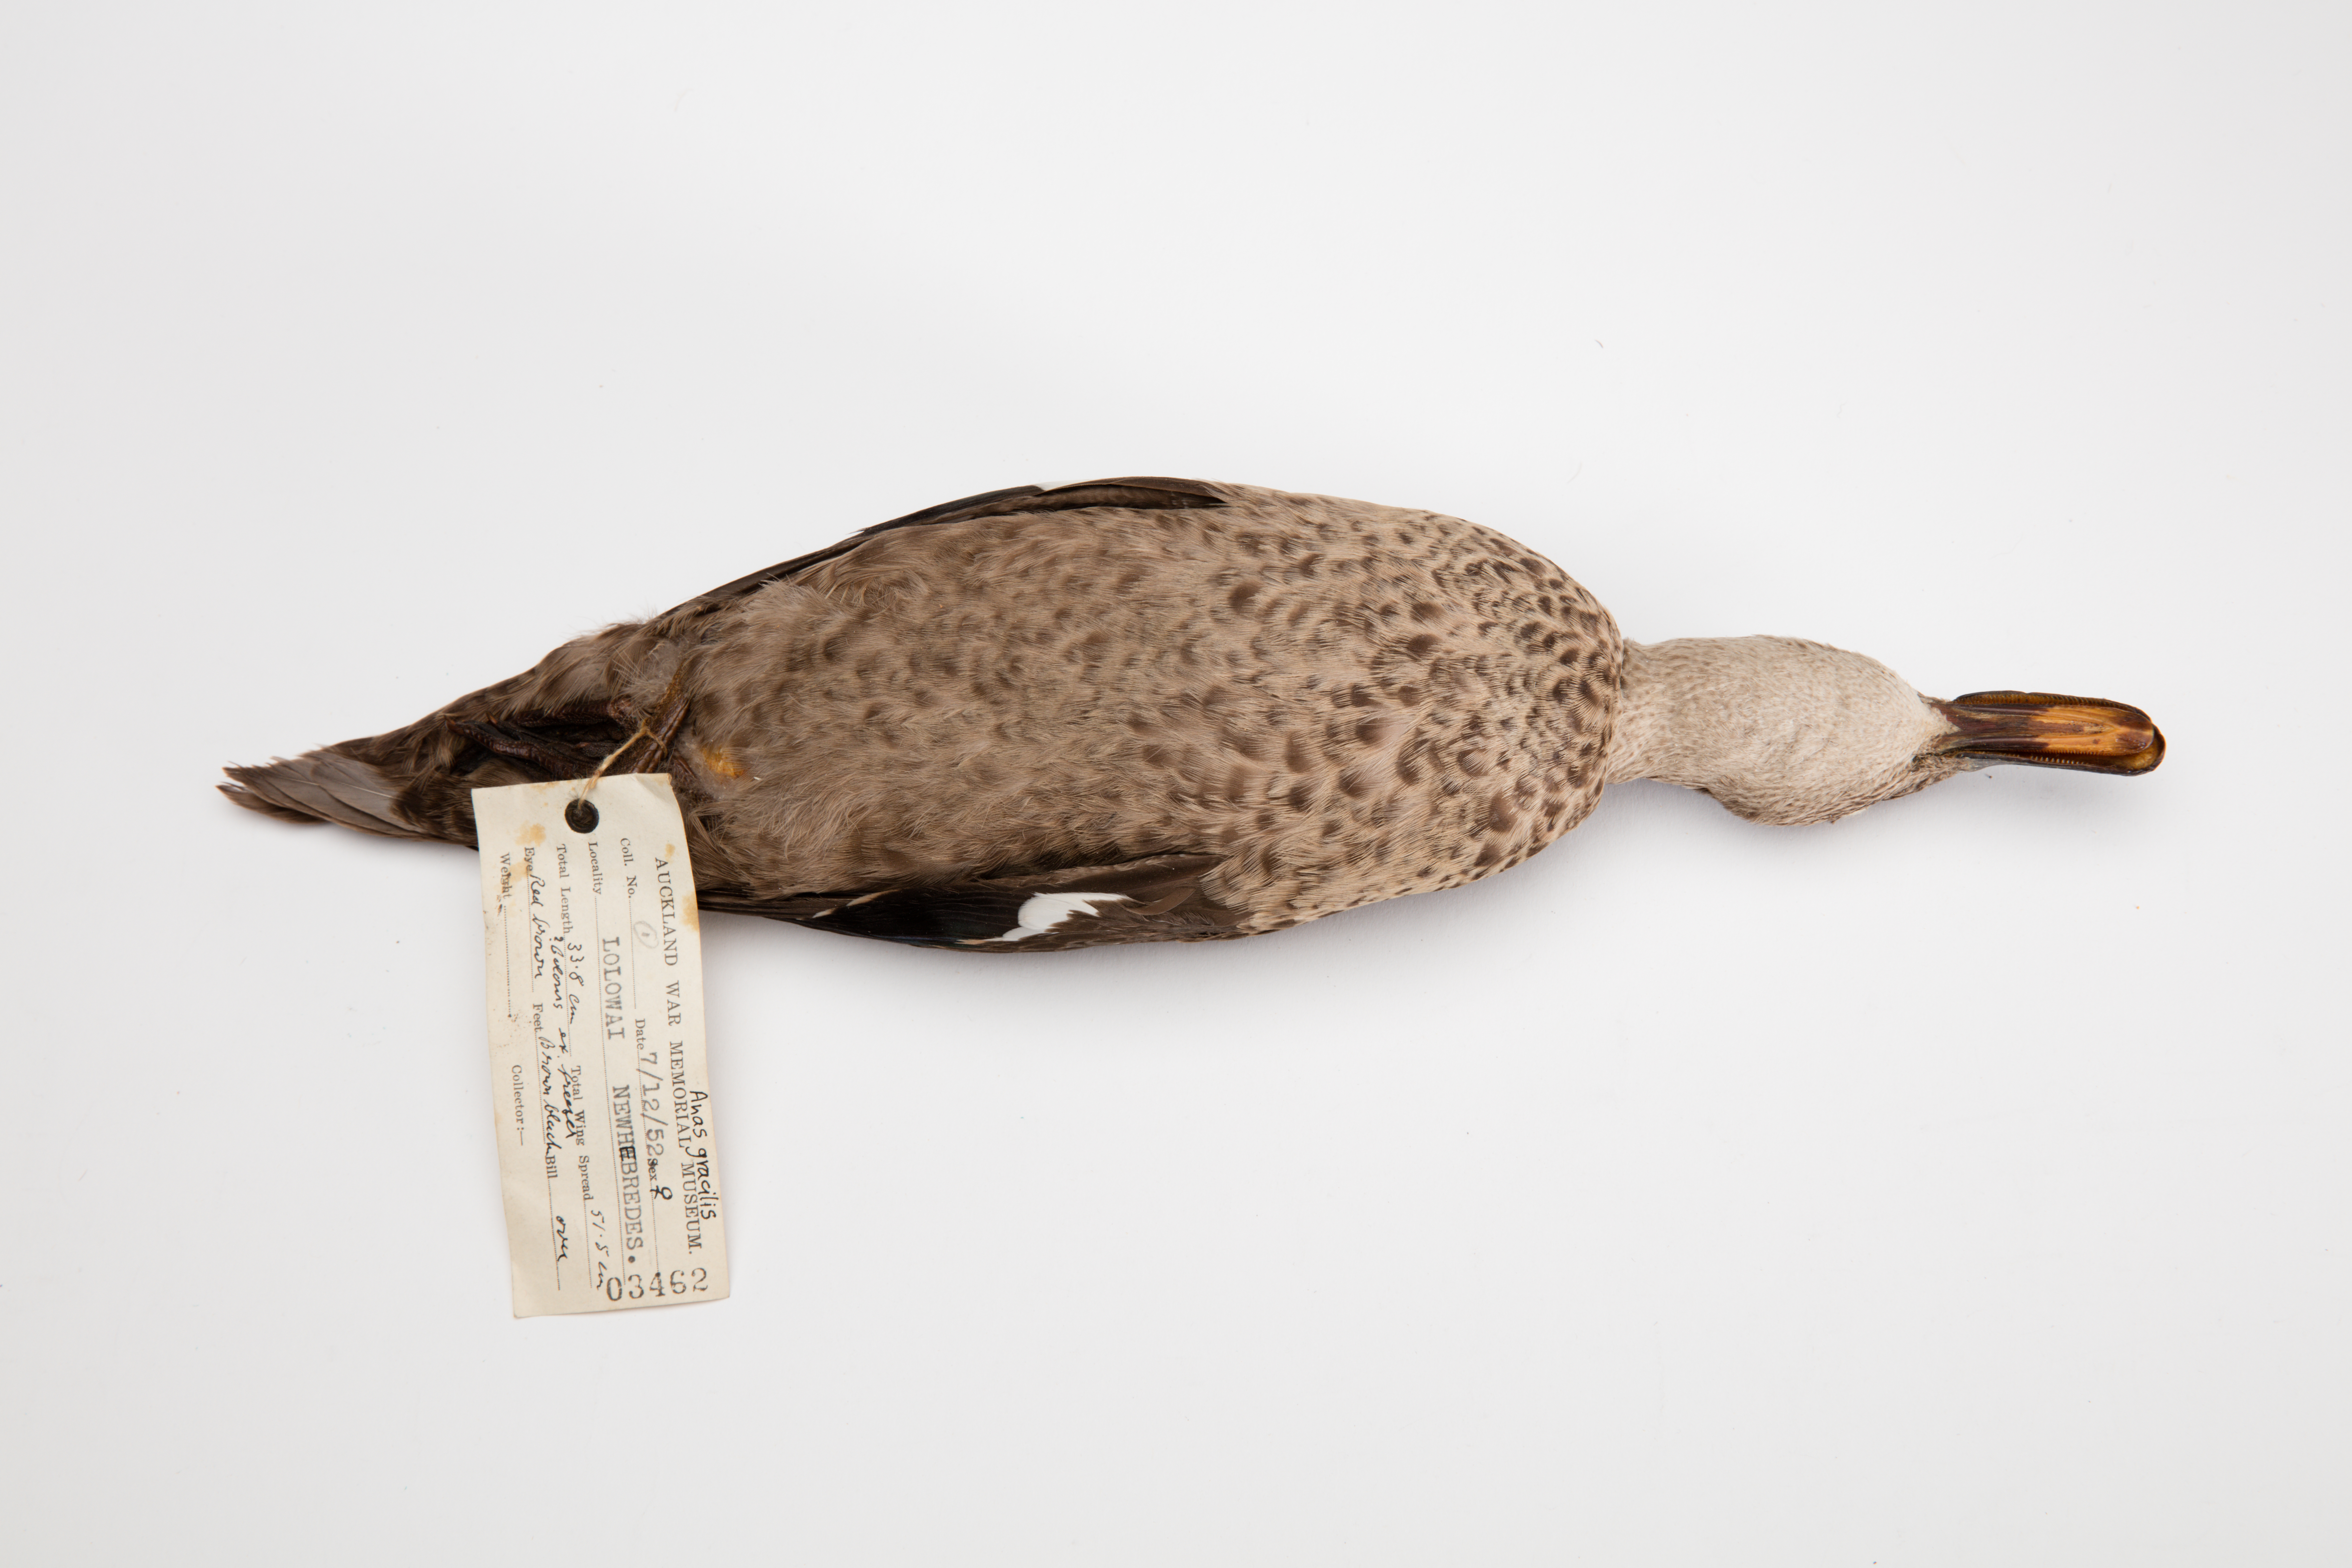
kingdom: Animalia
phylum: Chordata
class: Aves
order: Anseriformes
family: Anatidae
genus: Anas
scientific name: Anas gracilis
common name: Grey teal
